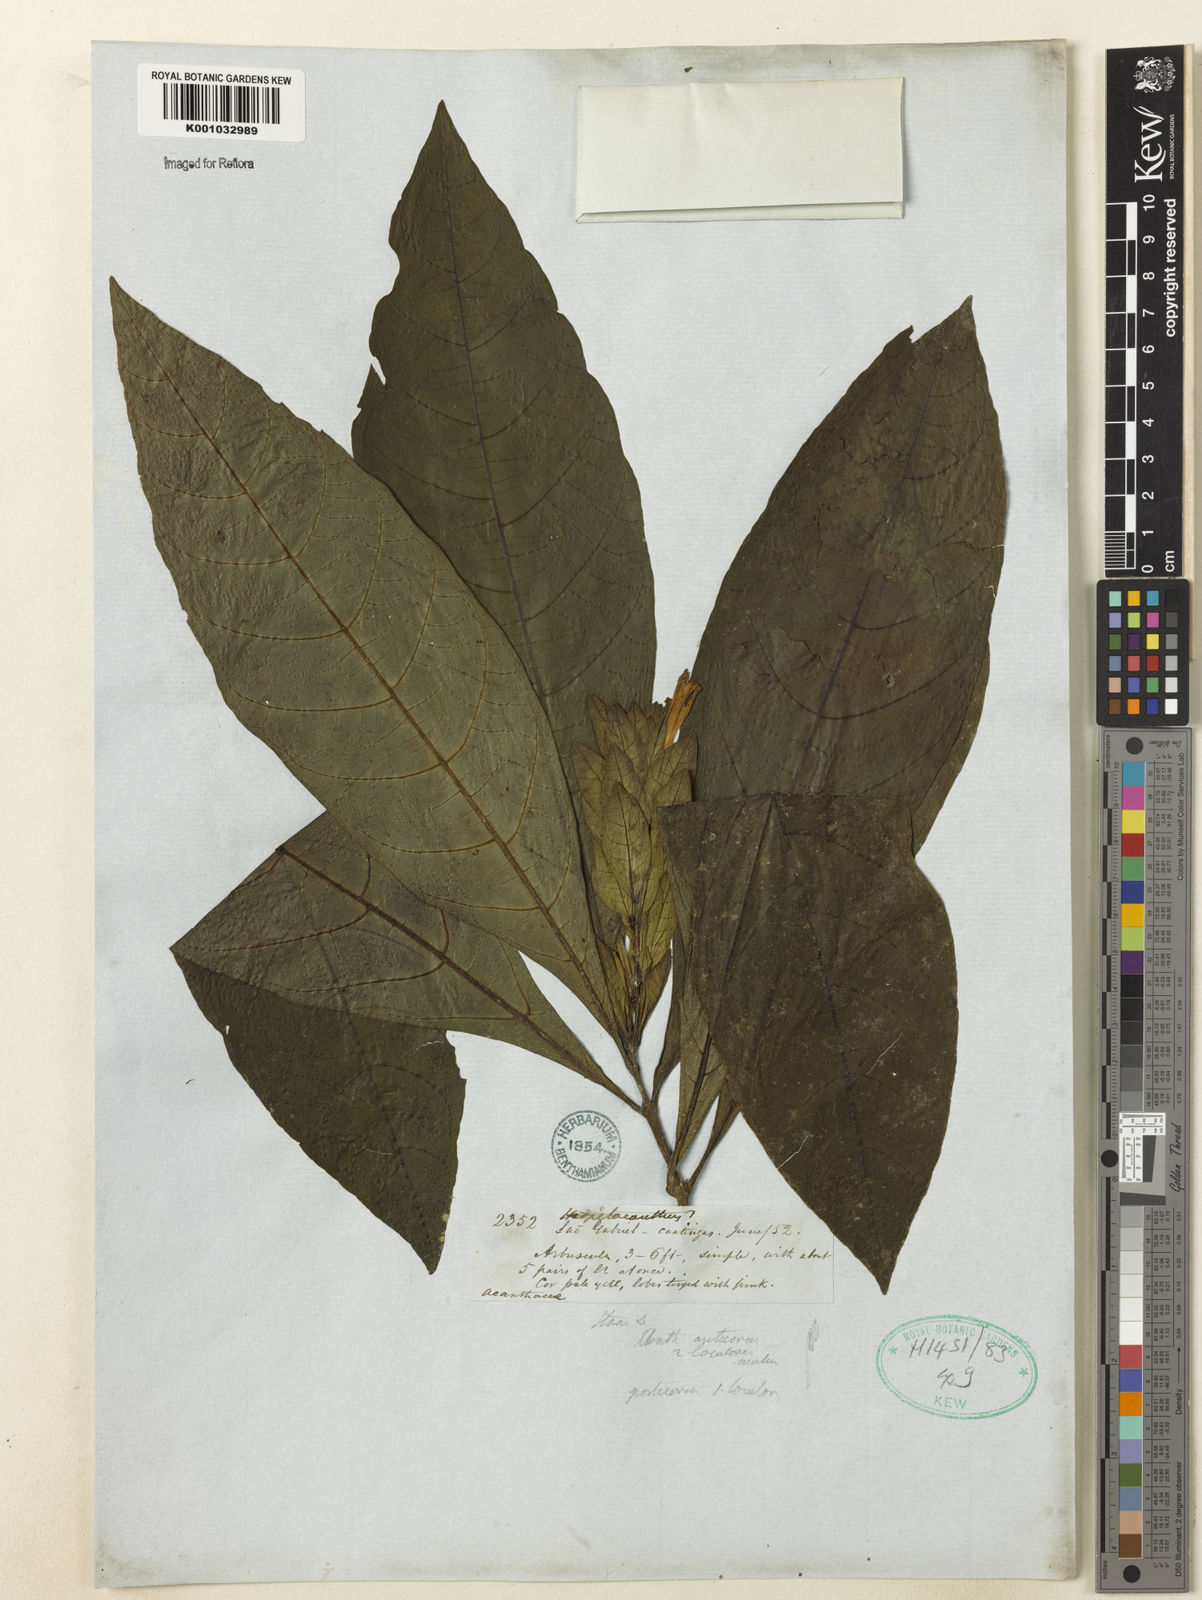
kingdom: Plantae
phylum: Tracheophyta
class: Magnoliopsida
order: Lamiales
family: Acanthaceae
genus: Herpetacanthus
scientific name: Herpetacanthus
